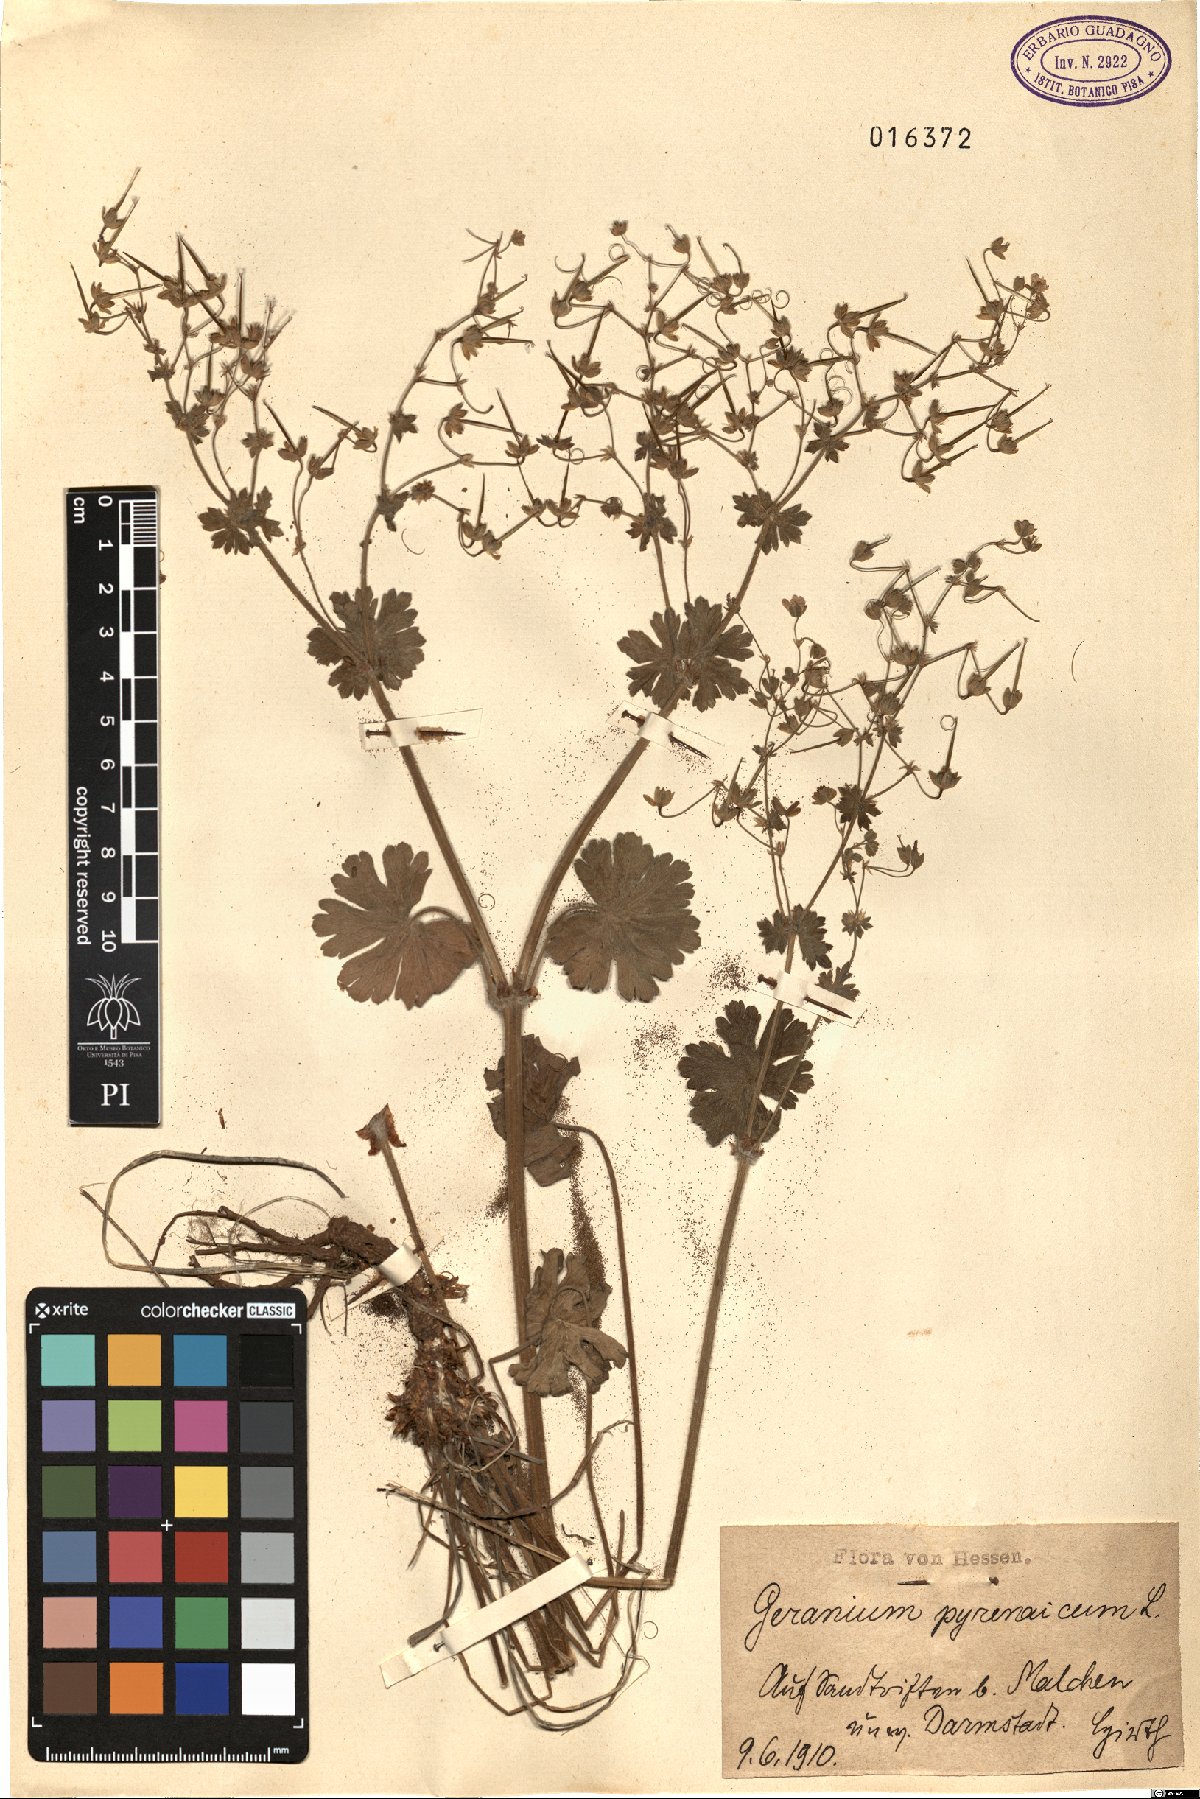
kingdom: Plantae
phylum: Tracheophyta
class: Magnoliopsida
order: Geraniales
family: Geraniaceae
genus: Geranium
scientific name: Geranium pyrenaicum
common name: Hedgerow crane's-bill
